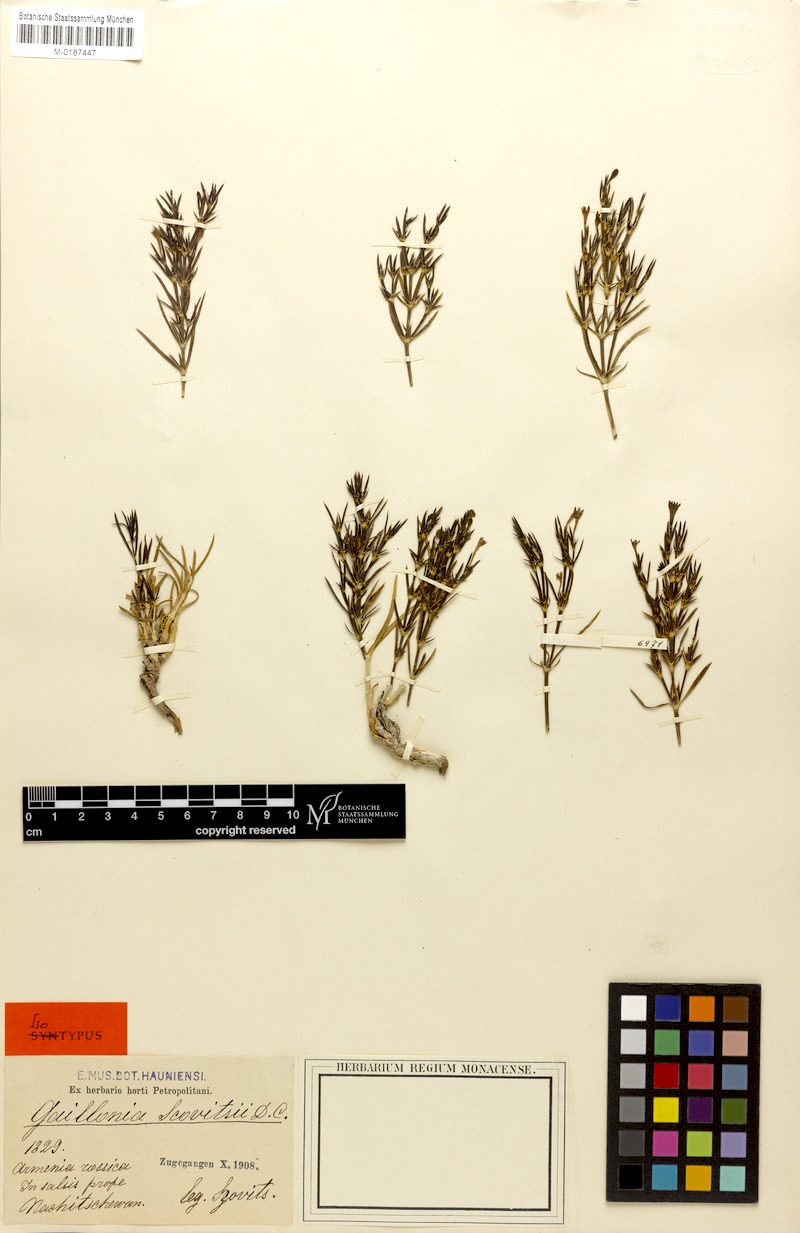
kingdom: Plantae
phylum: Tracheophyta
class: Magnoliopsida
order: Gentianales
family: Rubiaceae
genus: Plocama
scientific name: Plocama szowitzii
